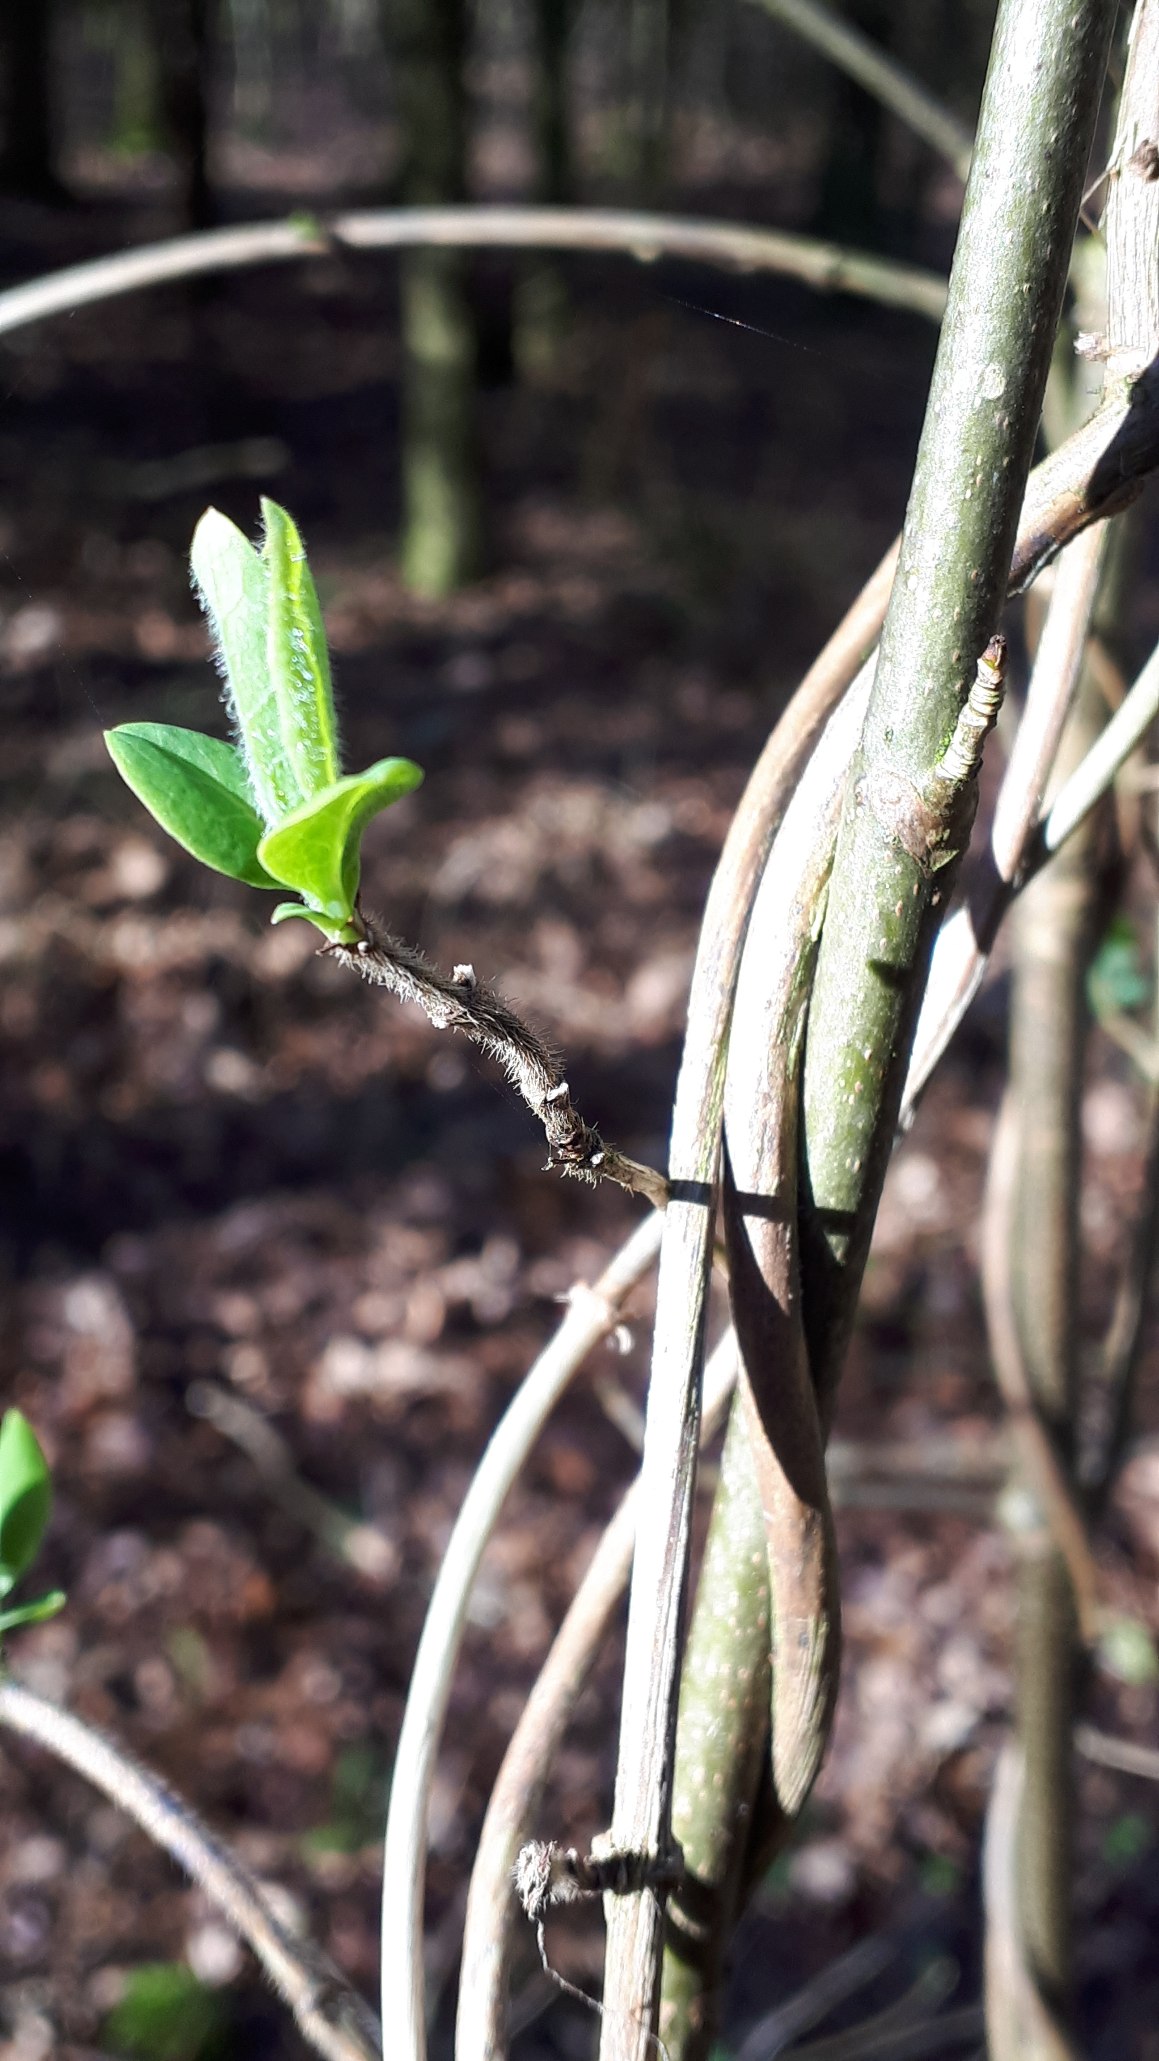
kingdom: Plantae
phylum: Tracheophyta
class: Magnoliopsida
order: Dipsacales
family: Caprifoliaceae
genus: Lonicera
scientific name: Lonicera periclymenum
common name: Almindelig gedeblad
